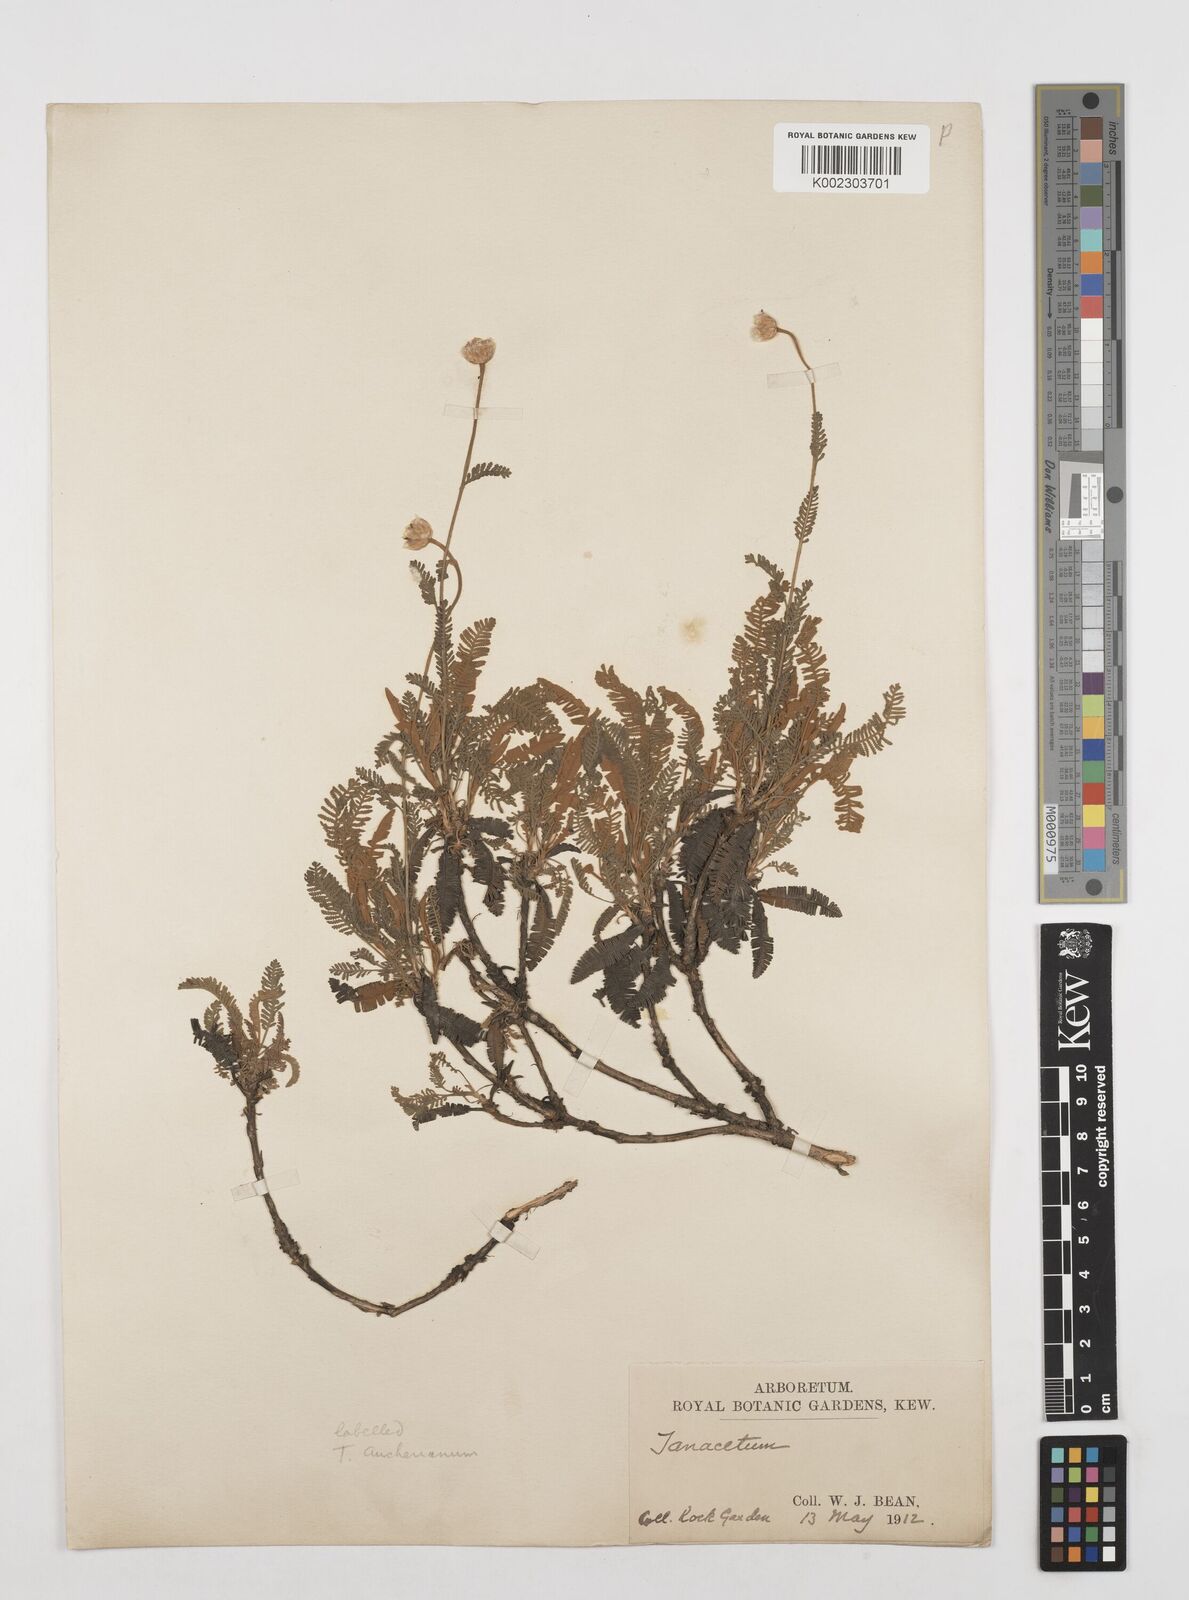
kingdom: Plantae
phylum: Tracheophyta
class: Magnoliopsida
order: Asterales
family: Asteraceae
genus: Tanacetum
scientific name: Tanacetum
